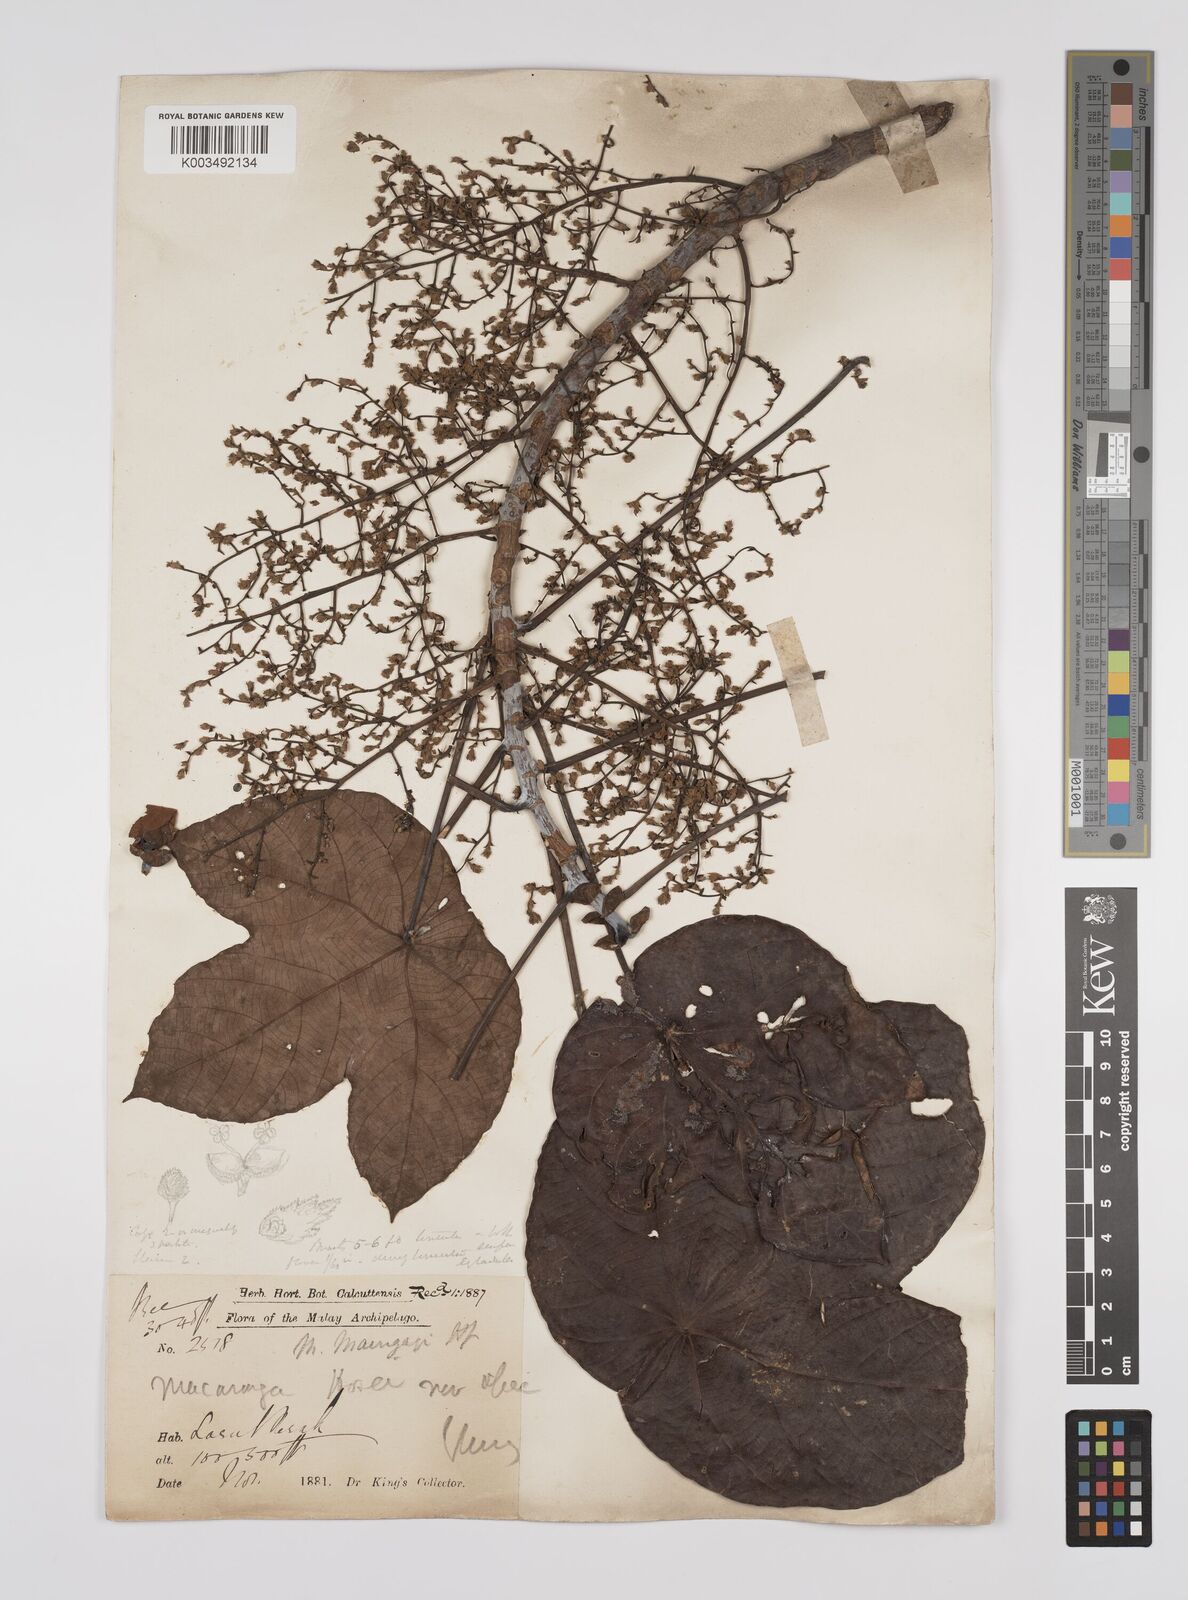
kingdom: Plantae
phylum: Tracheophyta
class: Magnoliopsida
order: Malpighiales
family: Euphorbiaceae
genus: Macaranga
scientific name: Macaranga pruinosa
